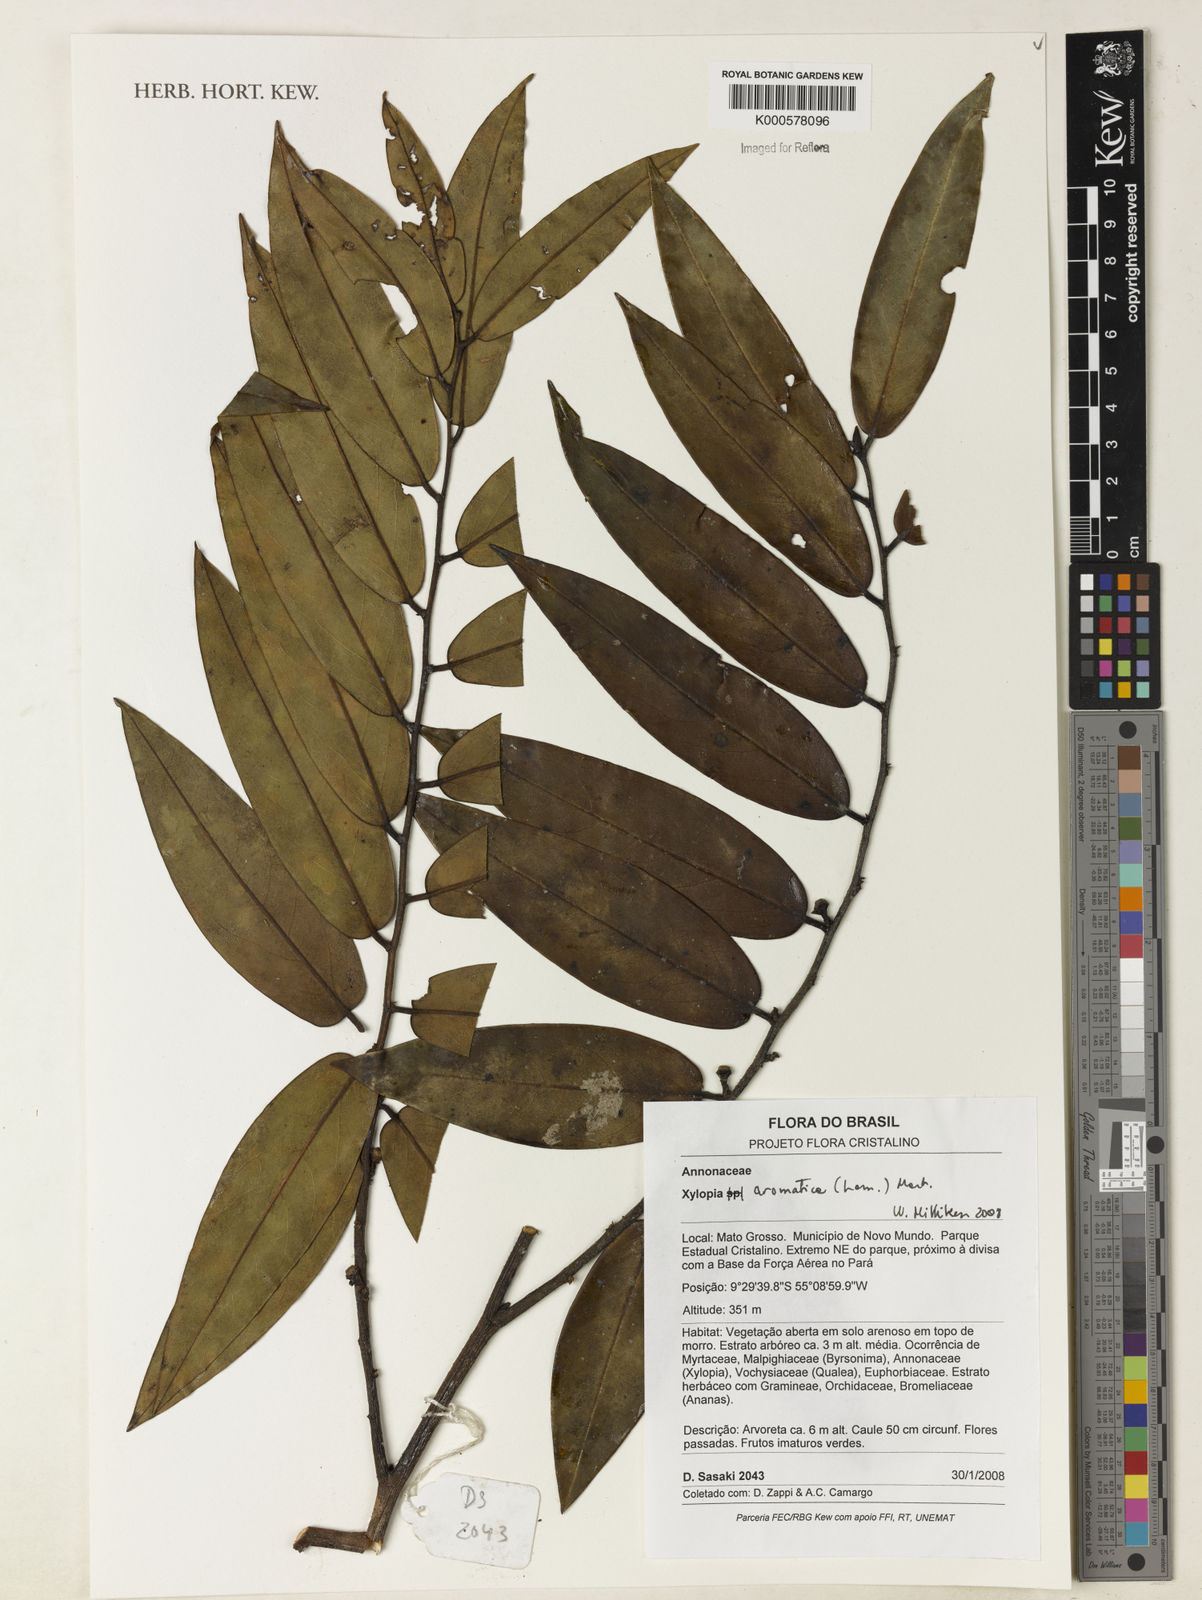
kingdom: Plantae
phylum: Tracheophyta
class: Magnoliopsida
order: Magnoliales
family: Annonaceae
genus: Xylopia
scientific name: Xylopia aromatica
